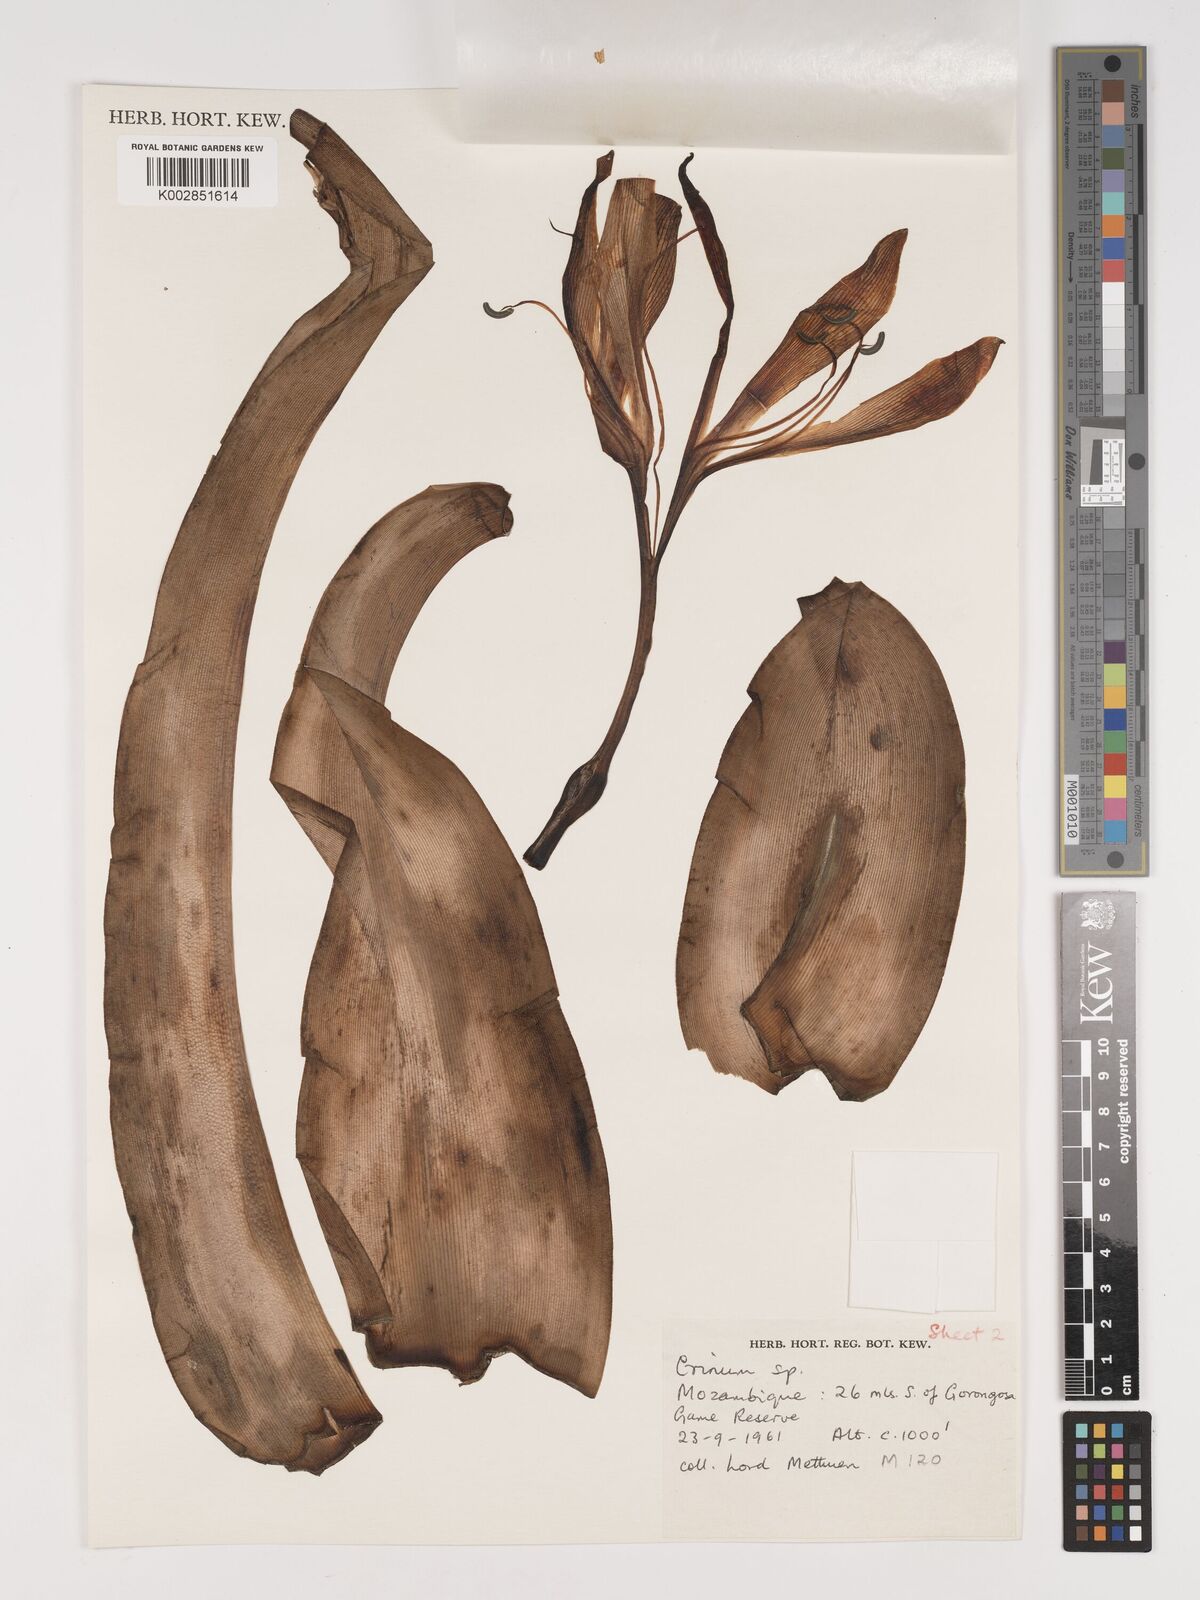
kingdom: Plantae
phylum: Tracheophyta
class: Liliopsida
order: Asparagales
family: Amaryllidaceae
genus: Crinum
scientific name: Crinum macowanii
